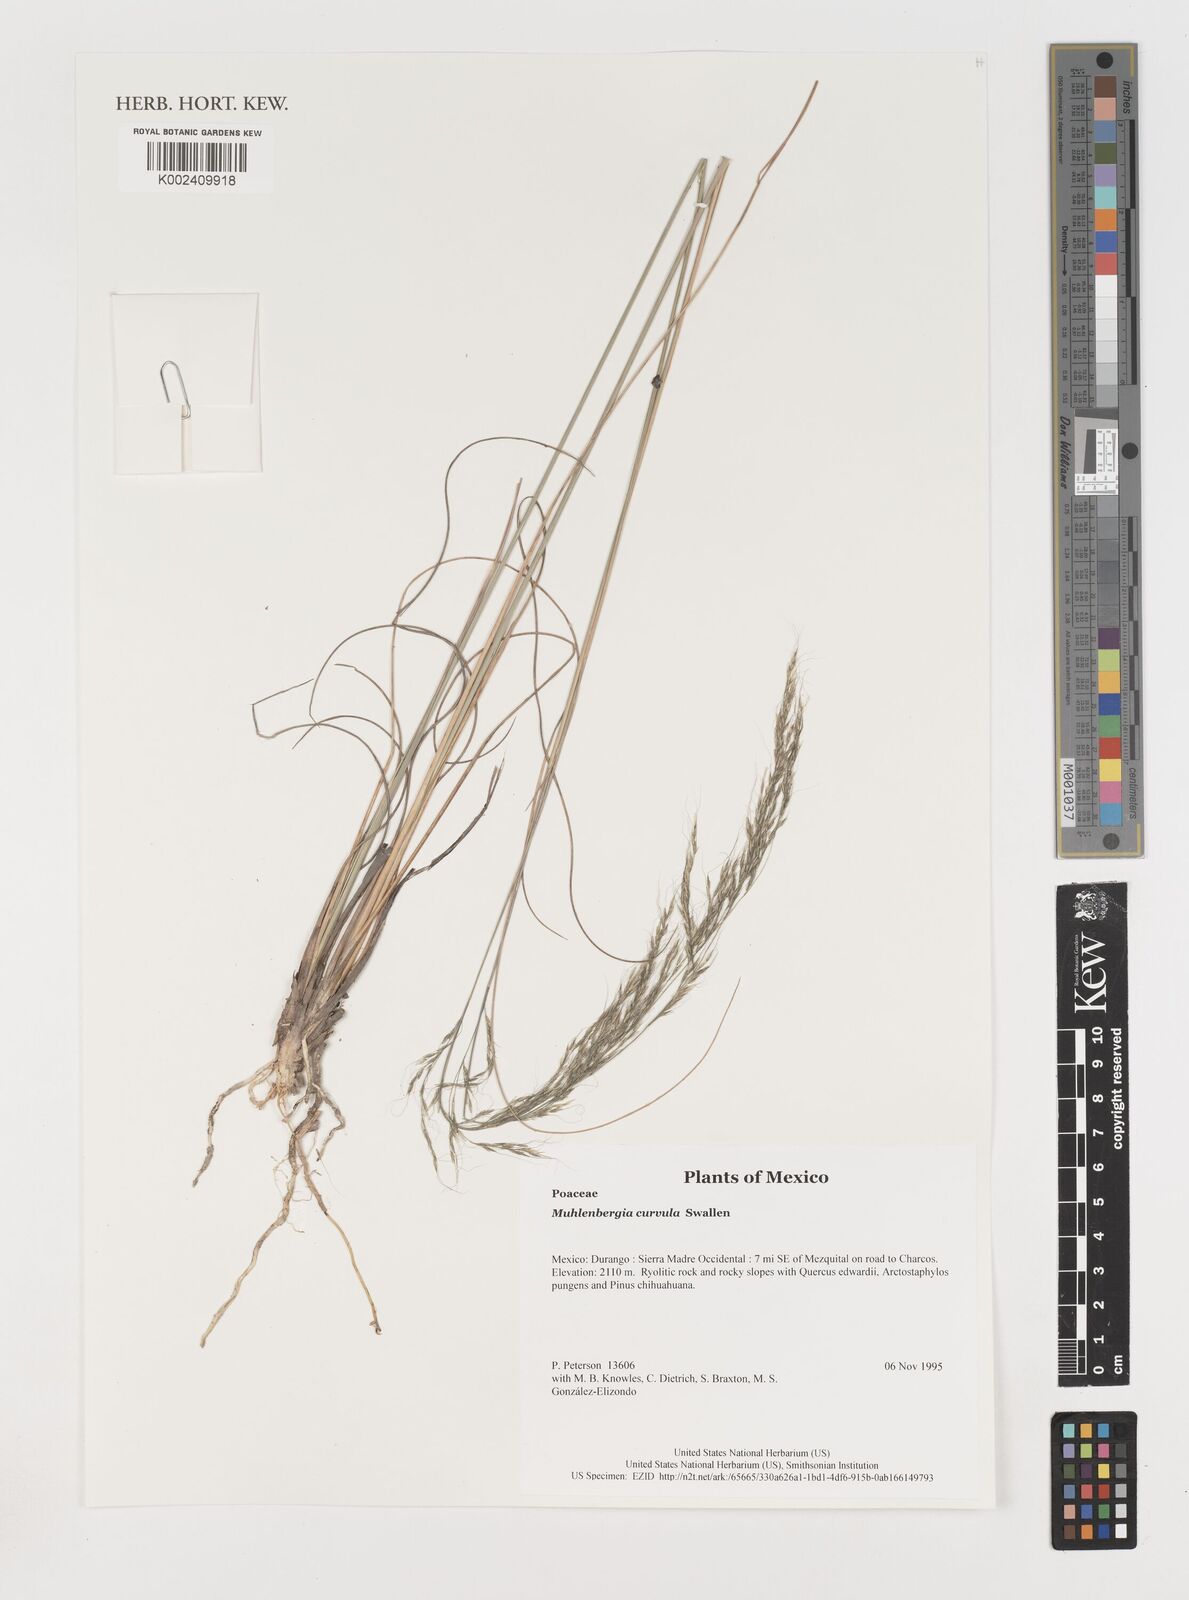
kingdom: Plantae
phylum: Tracheophyta
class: Liliopsida
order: Poales
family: Poaceae
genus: Muhlenbergia
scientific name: Muhlenbergia virescens
